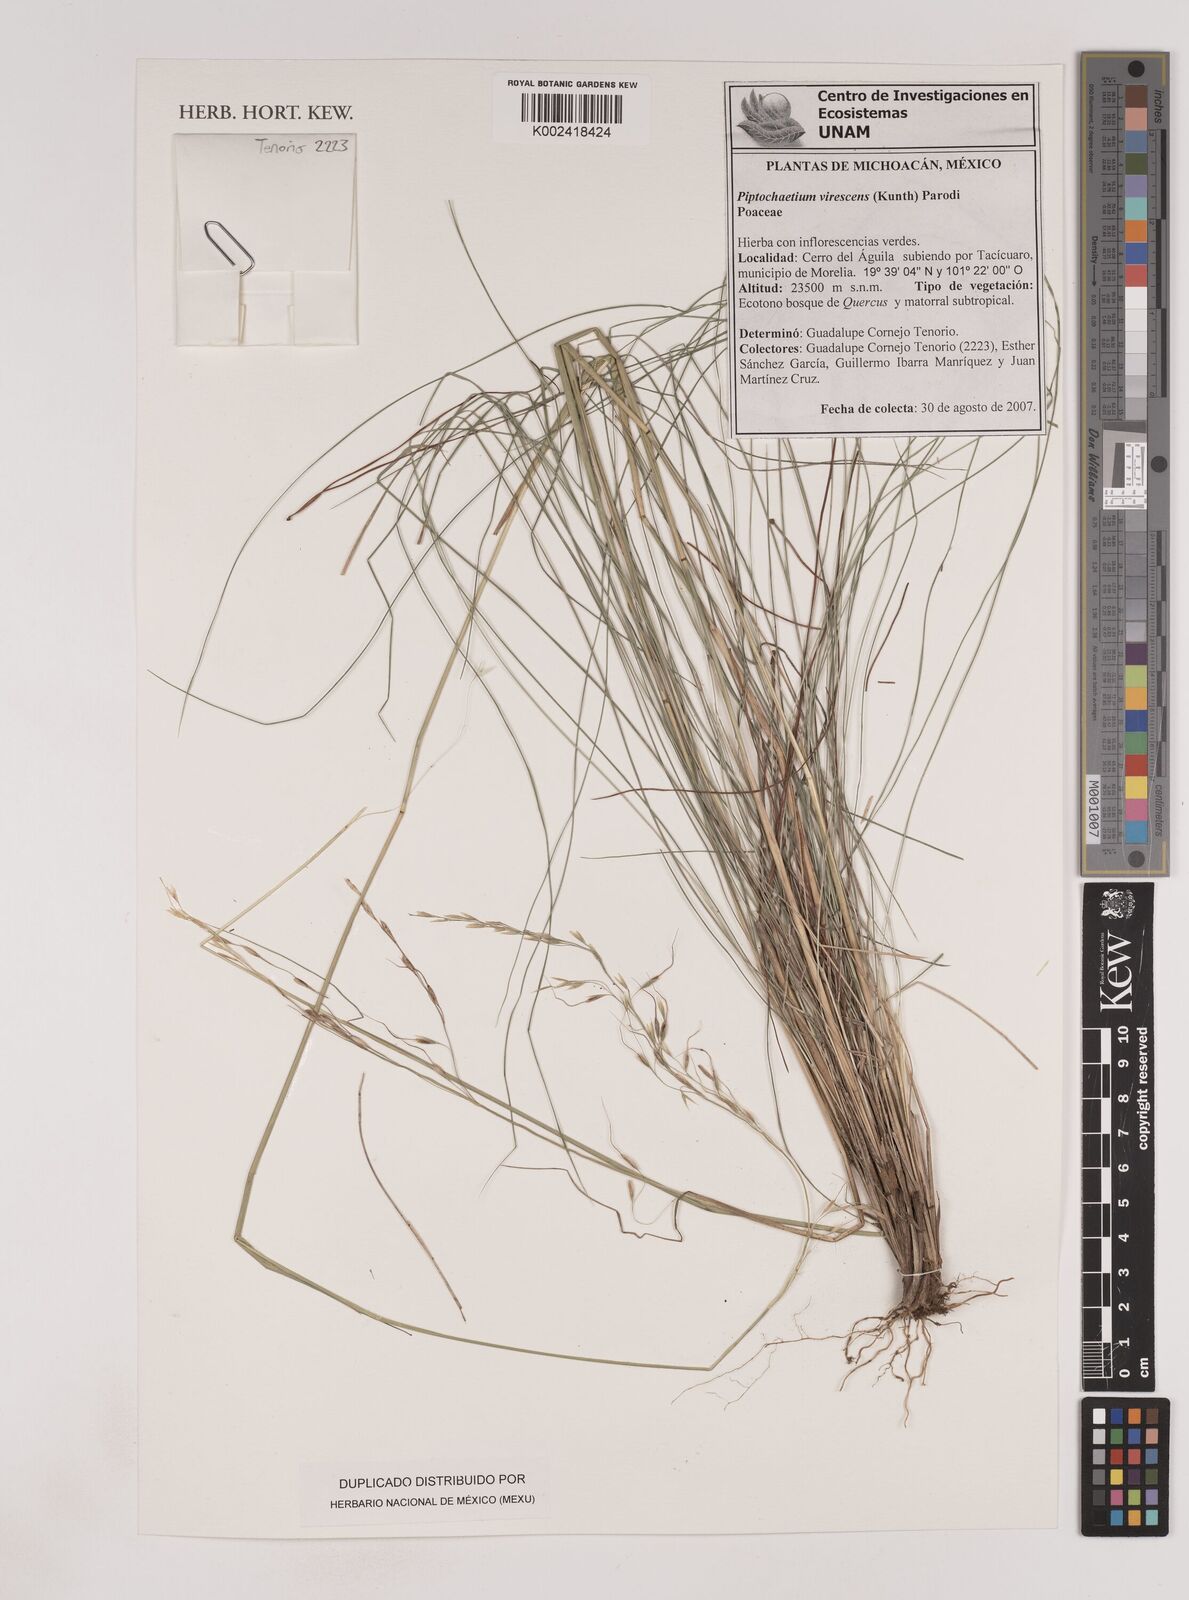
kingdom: Plantae
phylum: Tracheophyta
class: Liliopsida
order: Poales
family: Poaceae
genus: Piptochaetium
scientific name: Piptochaetium virescens
